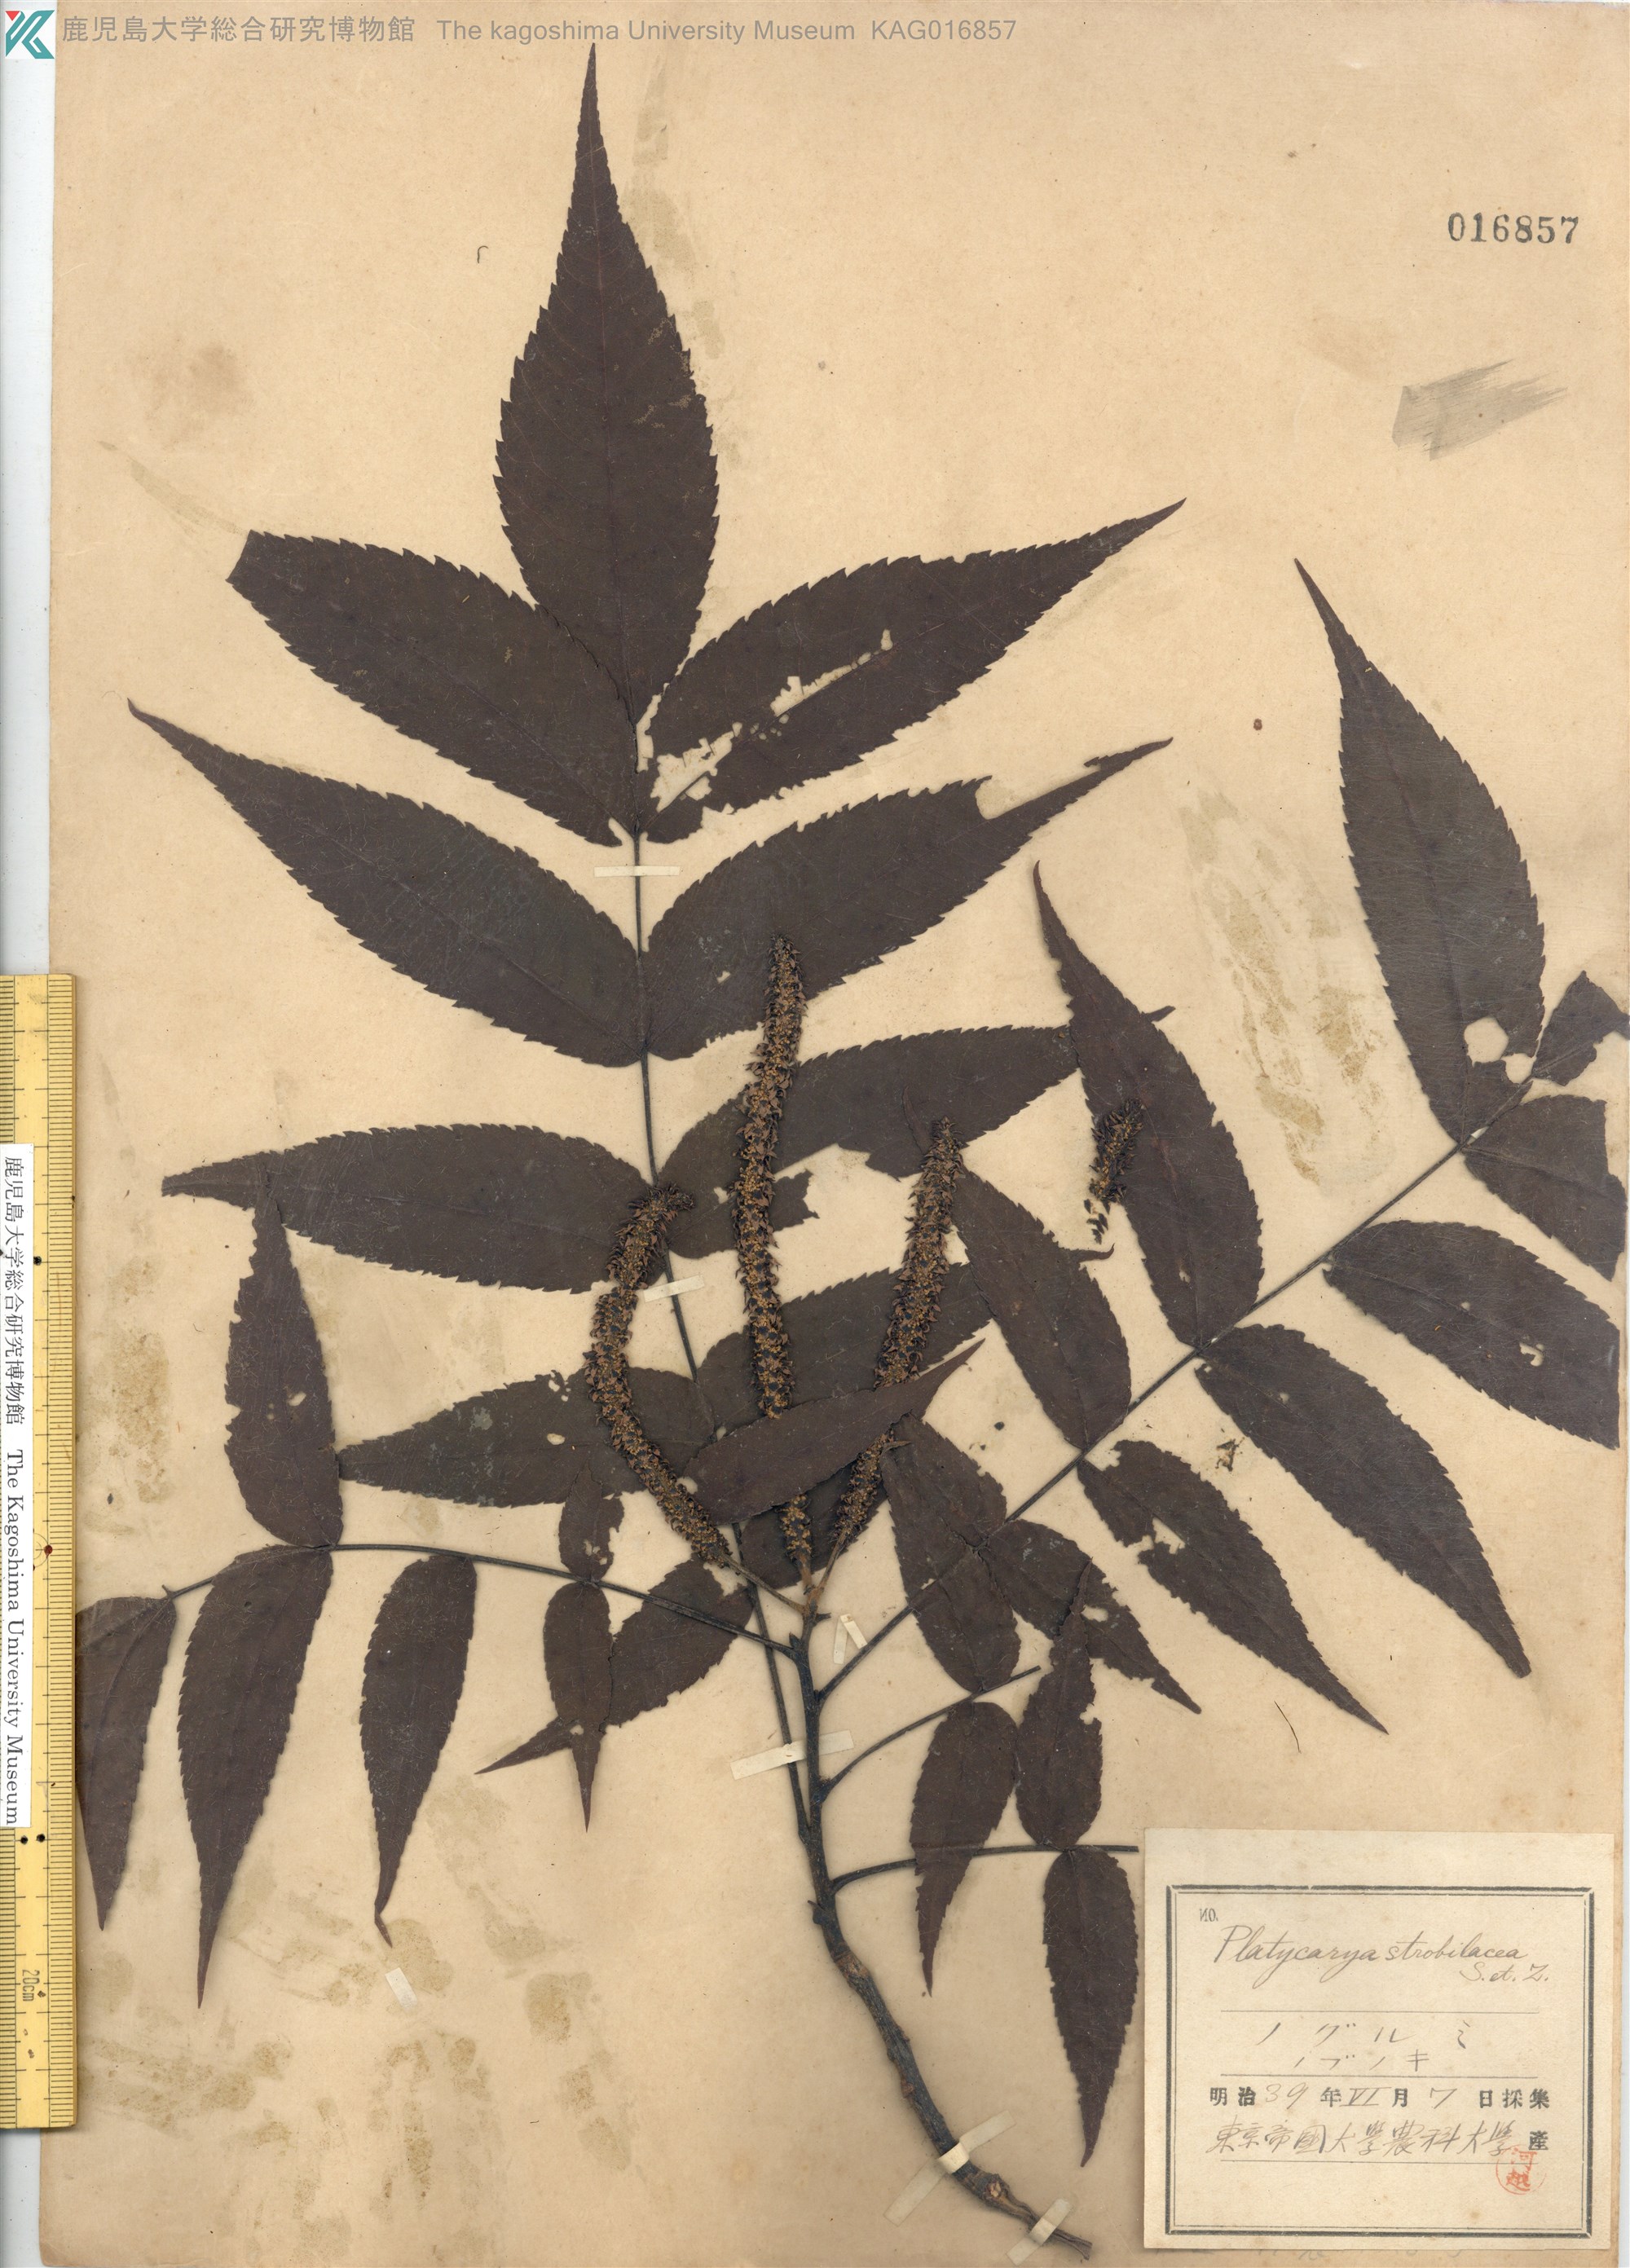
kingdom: Plantae
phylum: Tracheophyta
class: Magnoliopsida
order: Fagales
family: Juglandaceae
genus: Platycarya
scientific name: Platycarya strobilacea
